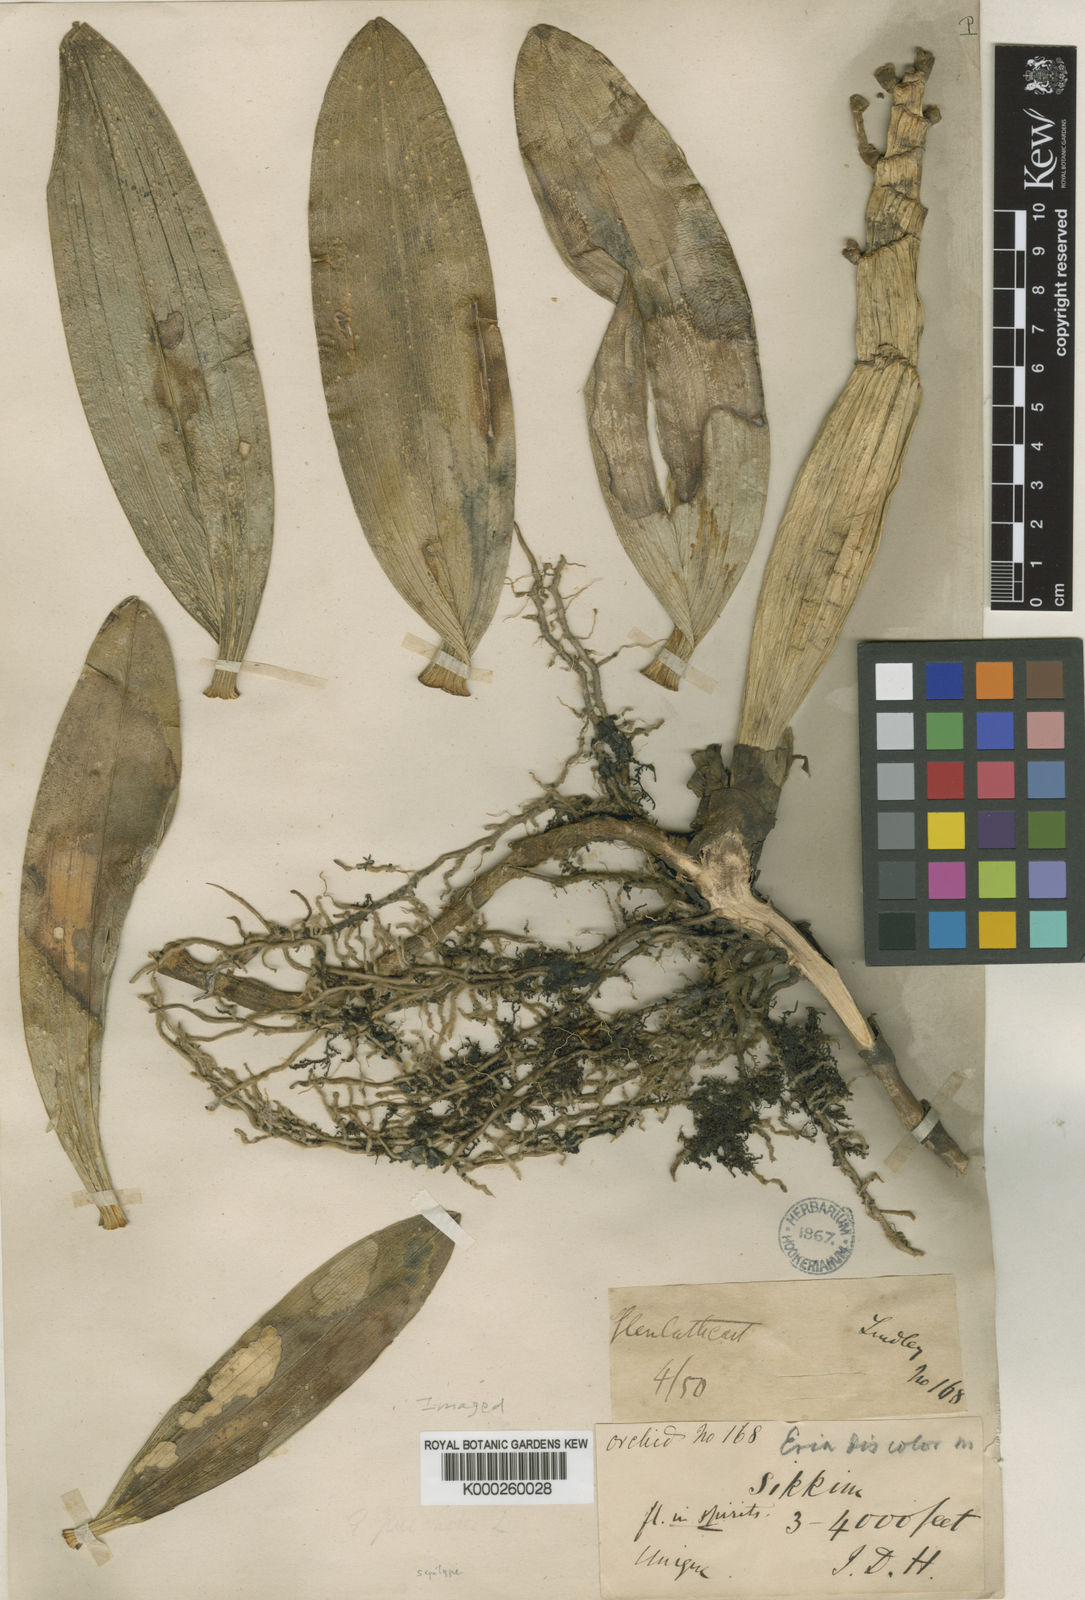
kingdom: Plantae
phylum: Tracheophyta
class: Liliopsida
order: Asparagales
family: Orchidaceae
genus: Callostylis
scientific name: Callostylis rigida
